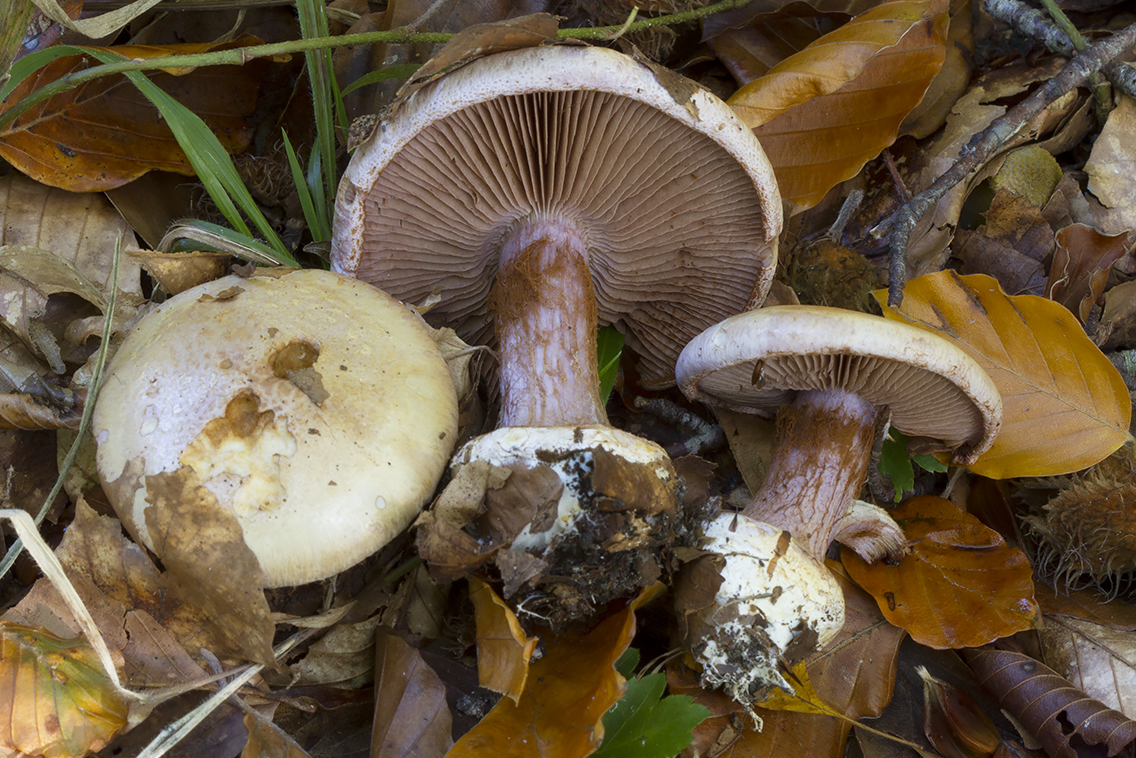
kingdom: Fungi
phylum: Basidiomycota
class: Agaricomycetes
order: Agaricales
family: Cortinariaceae
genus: Calonarius
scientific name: Calonarius suaveolens
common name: sødtduftende slørhat
